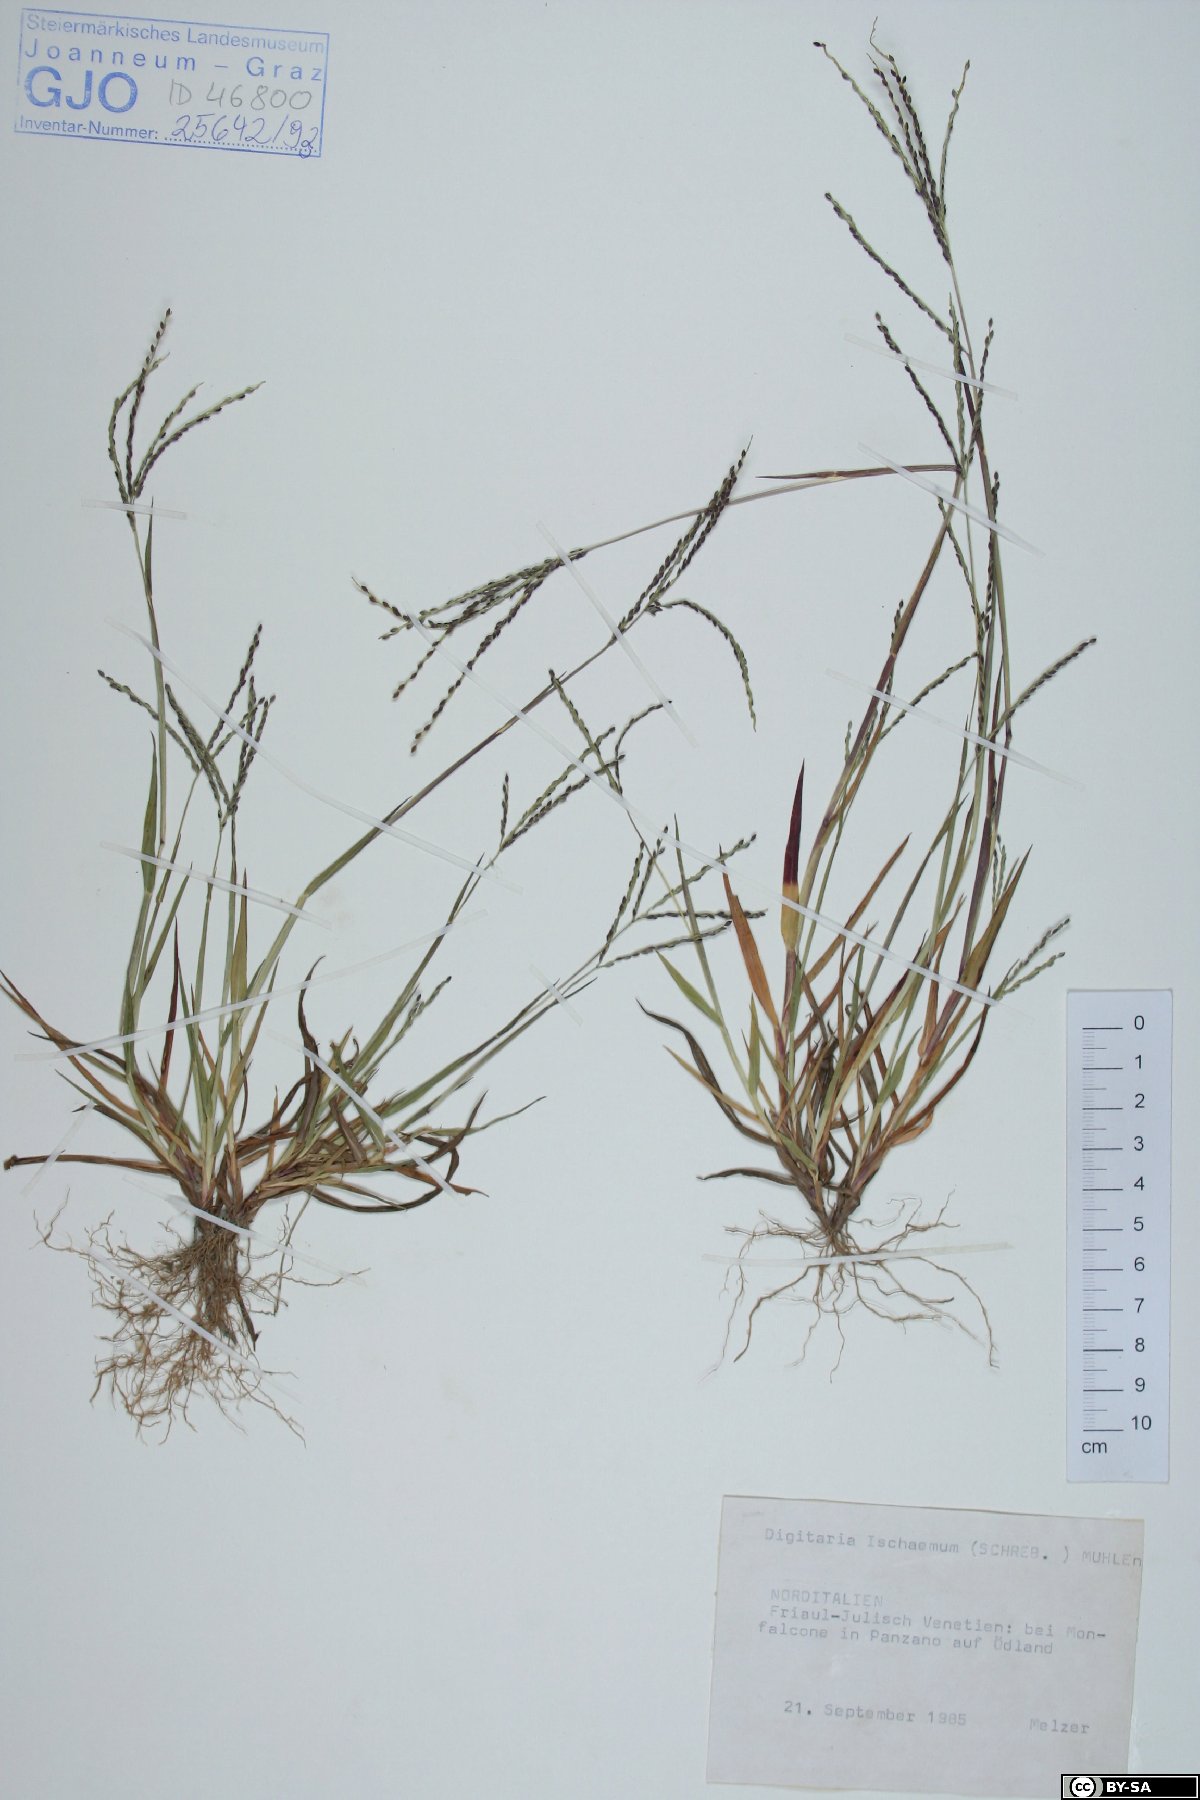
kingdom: Plantae
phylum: Tracheophyta
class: Liliopsida
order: Poales
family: Poaceae
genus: Digitaria
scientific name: Digitaria ischaemum
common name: Smooth crabgrass
